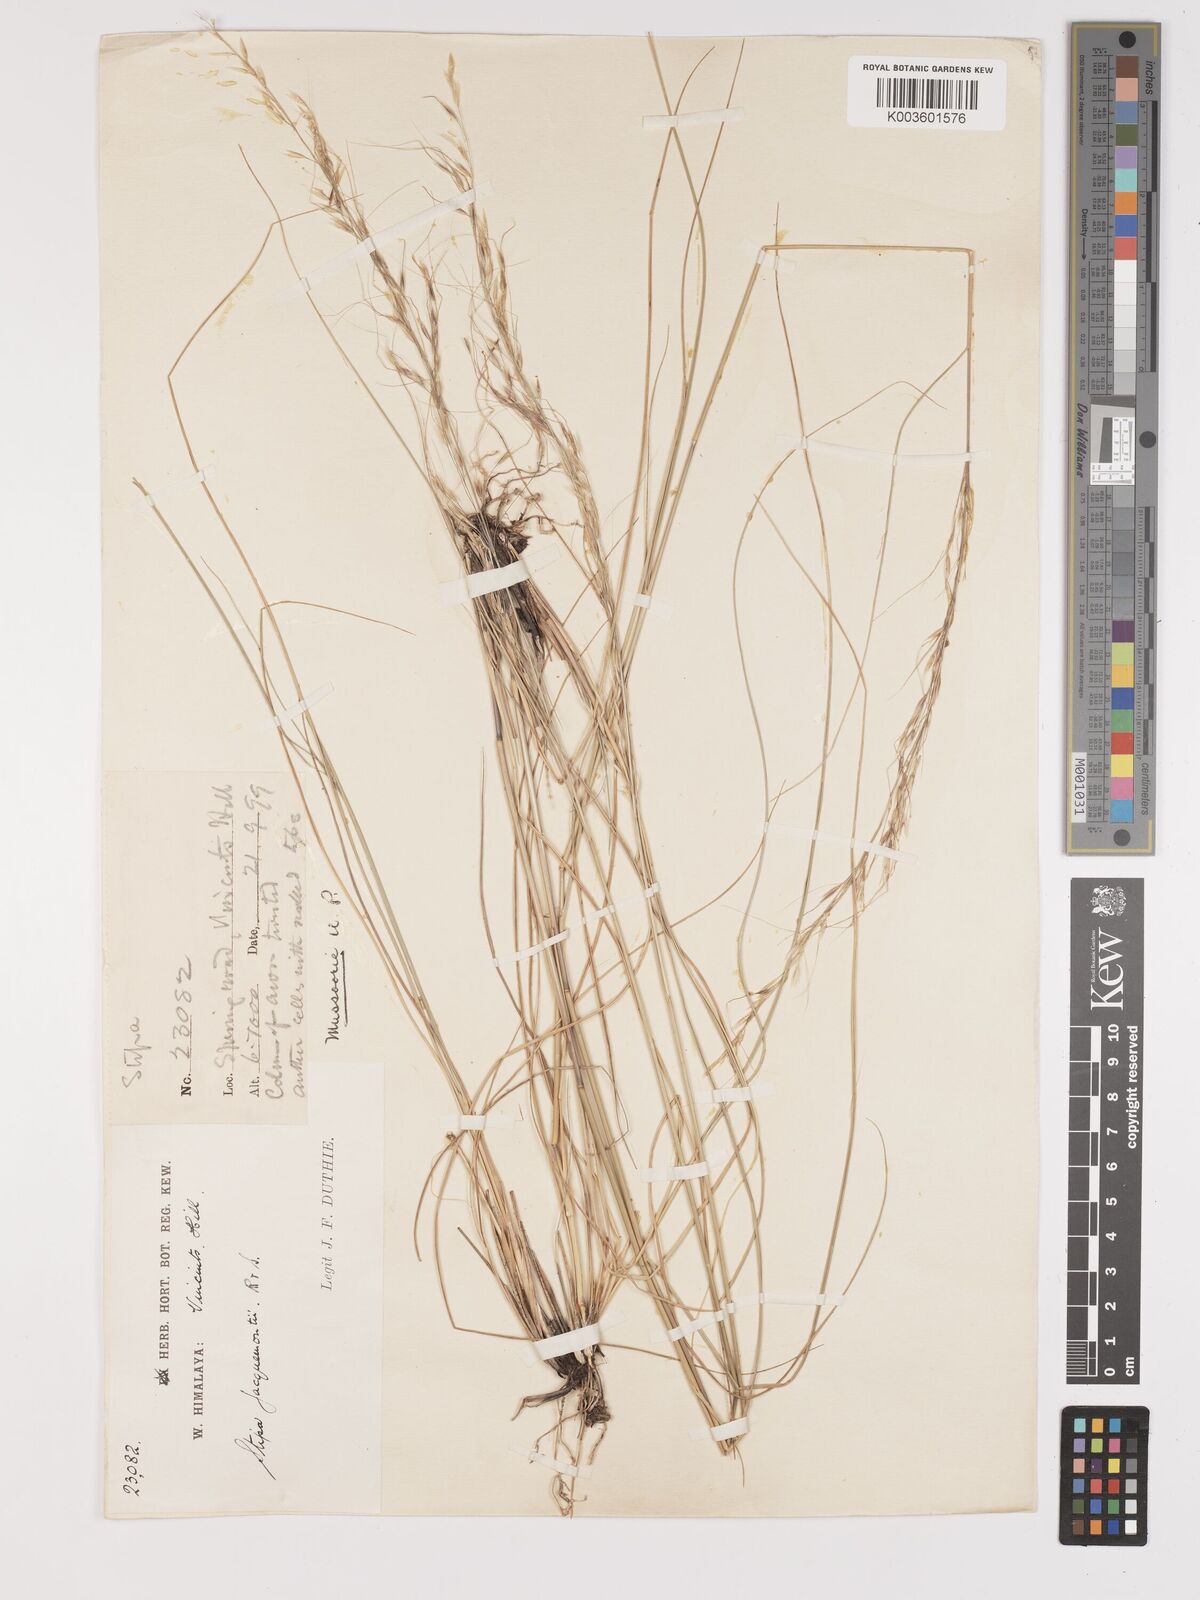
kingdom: Plantae
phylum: Tracheophyta
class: Liliopsida
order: Poales
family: Poaceae
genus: Achnatherum
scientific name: Achnatherum jacquemontii
